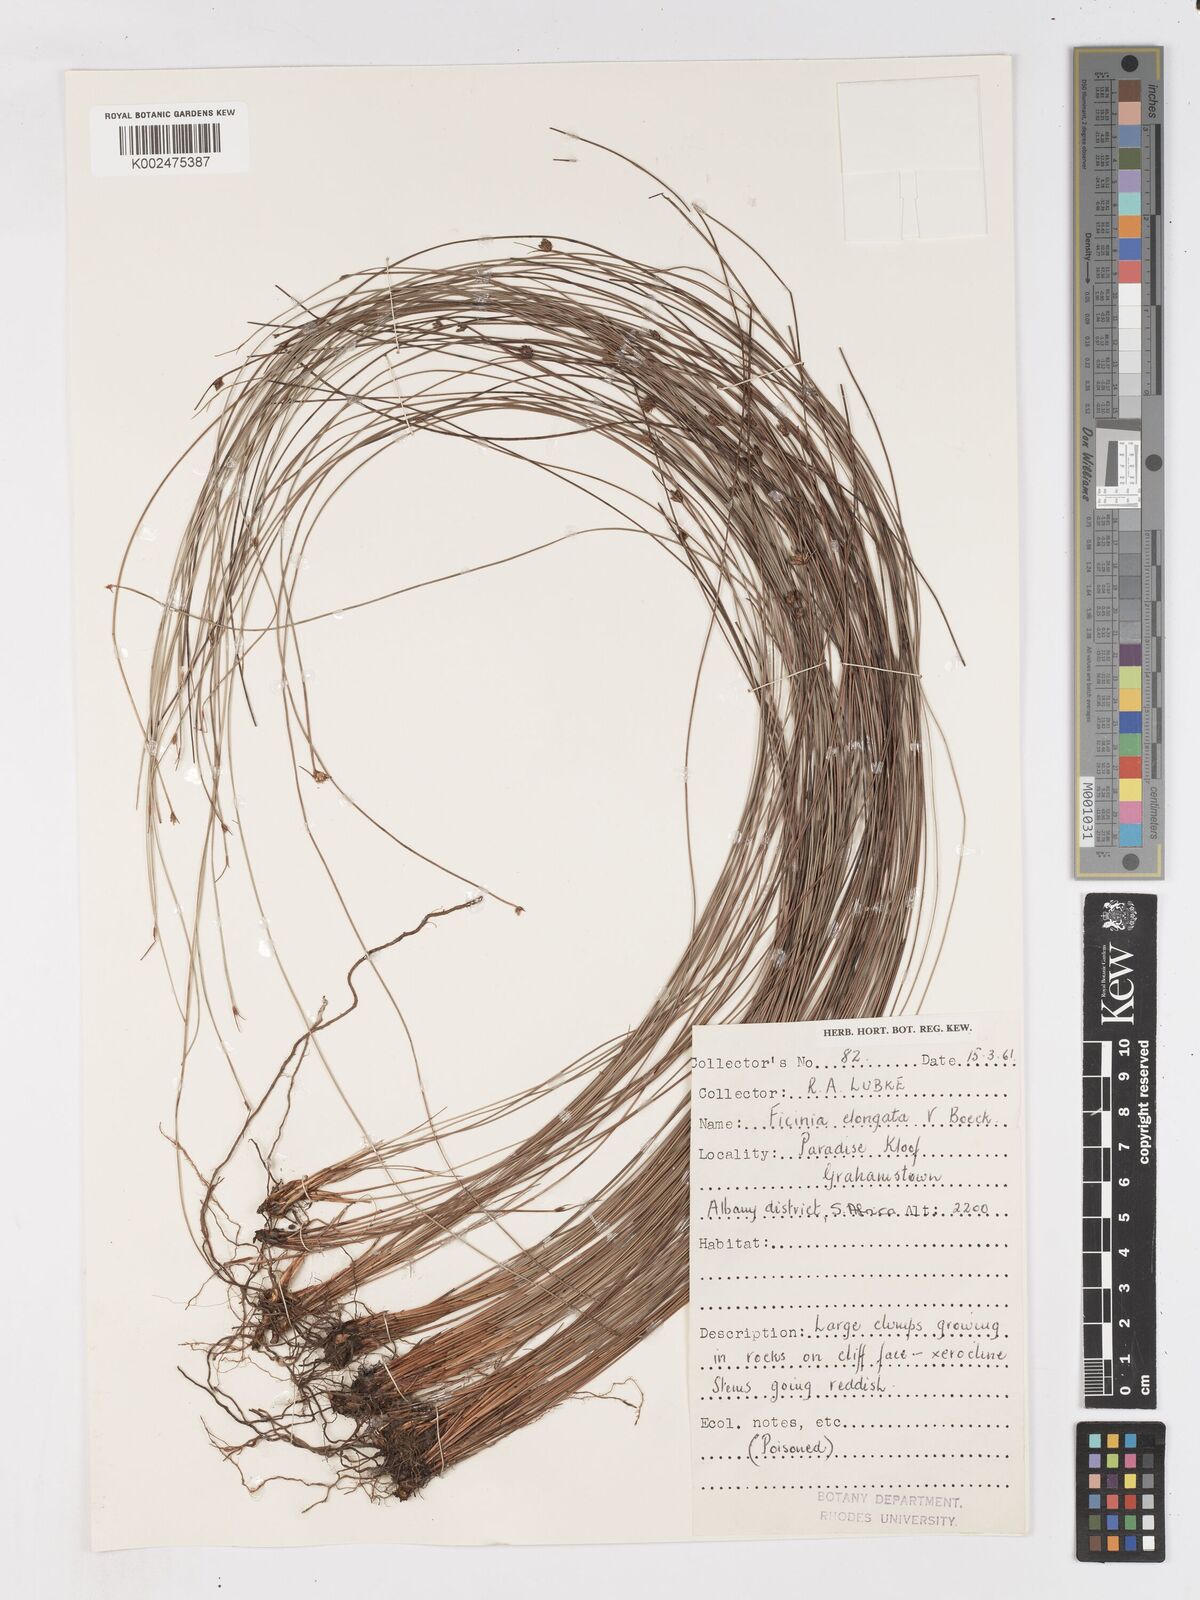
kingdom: Plantae
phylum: Tracheophyta
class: Liliopsida
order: Poales
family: Cyperaceae
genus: Ficinia
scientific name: Ficinia acuminata
